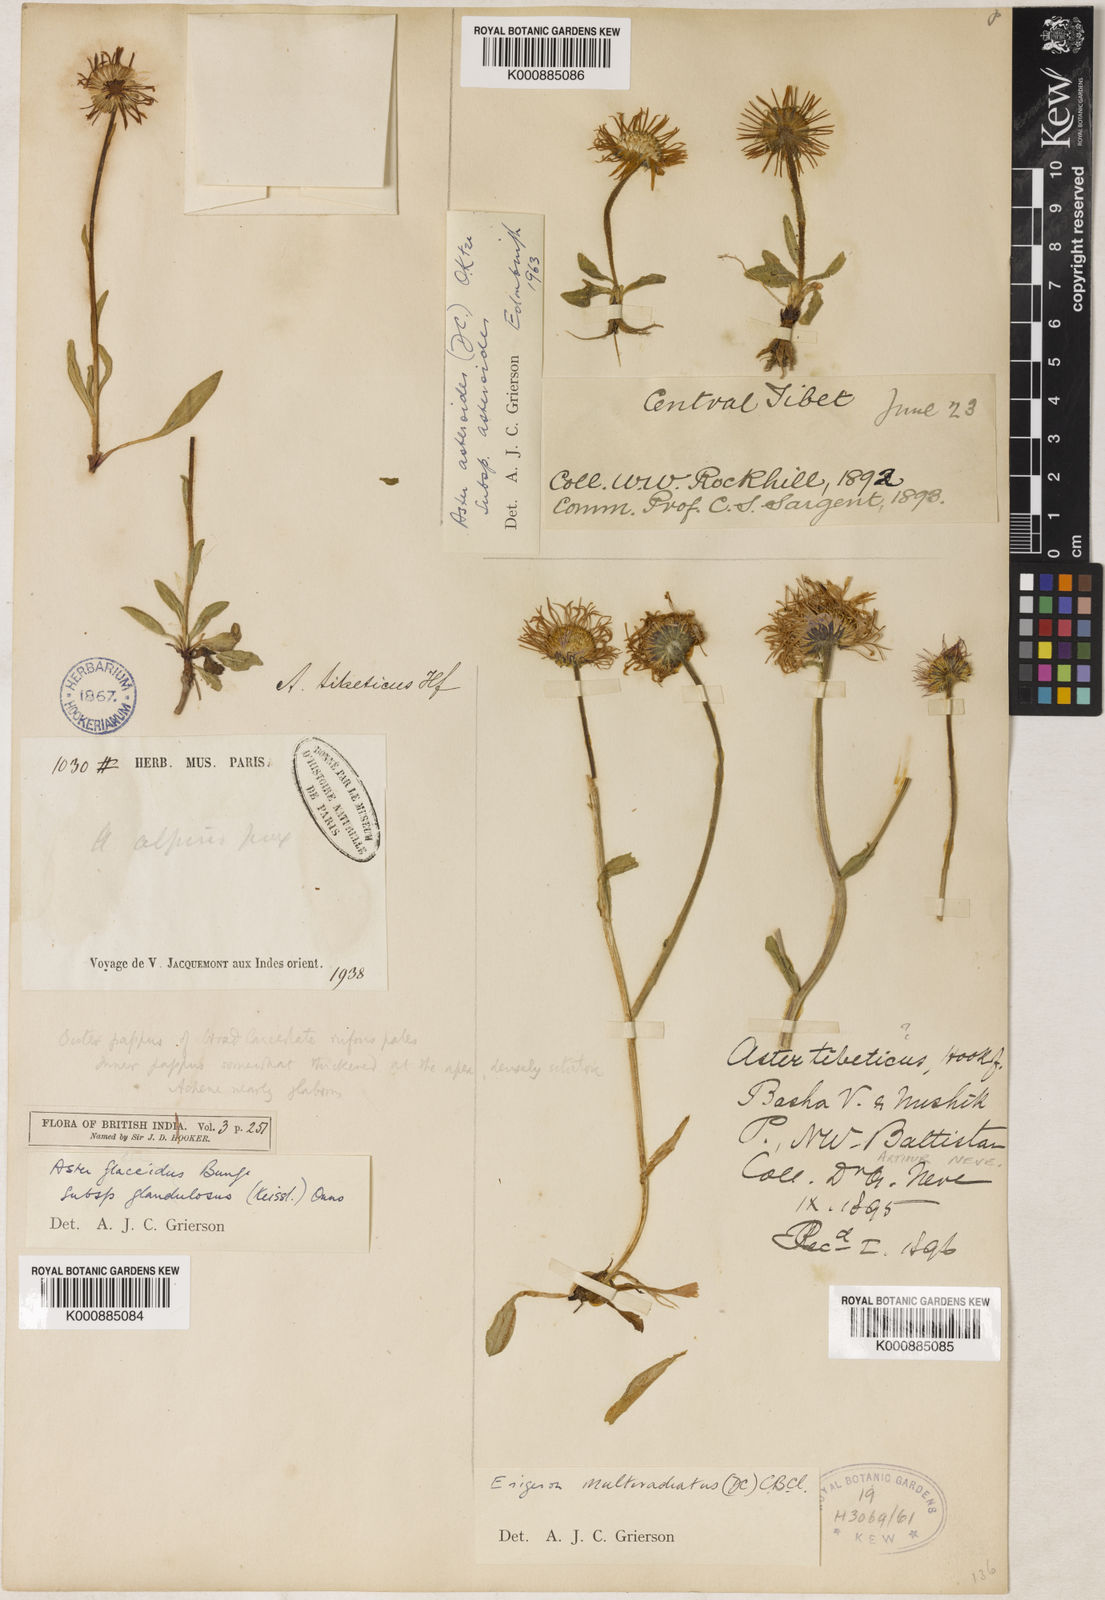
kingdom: Plantae
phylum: Tracheophyta
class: Magnoliopsida
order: Asterales
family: Asteraceae
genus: Erigeron
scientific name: Erigeron
